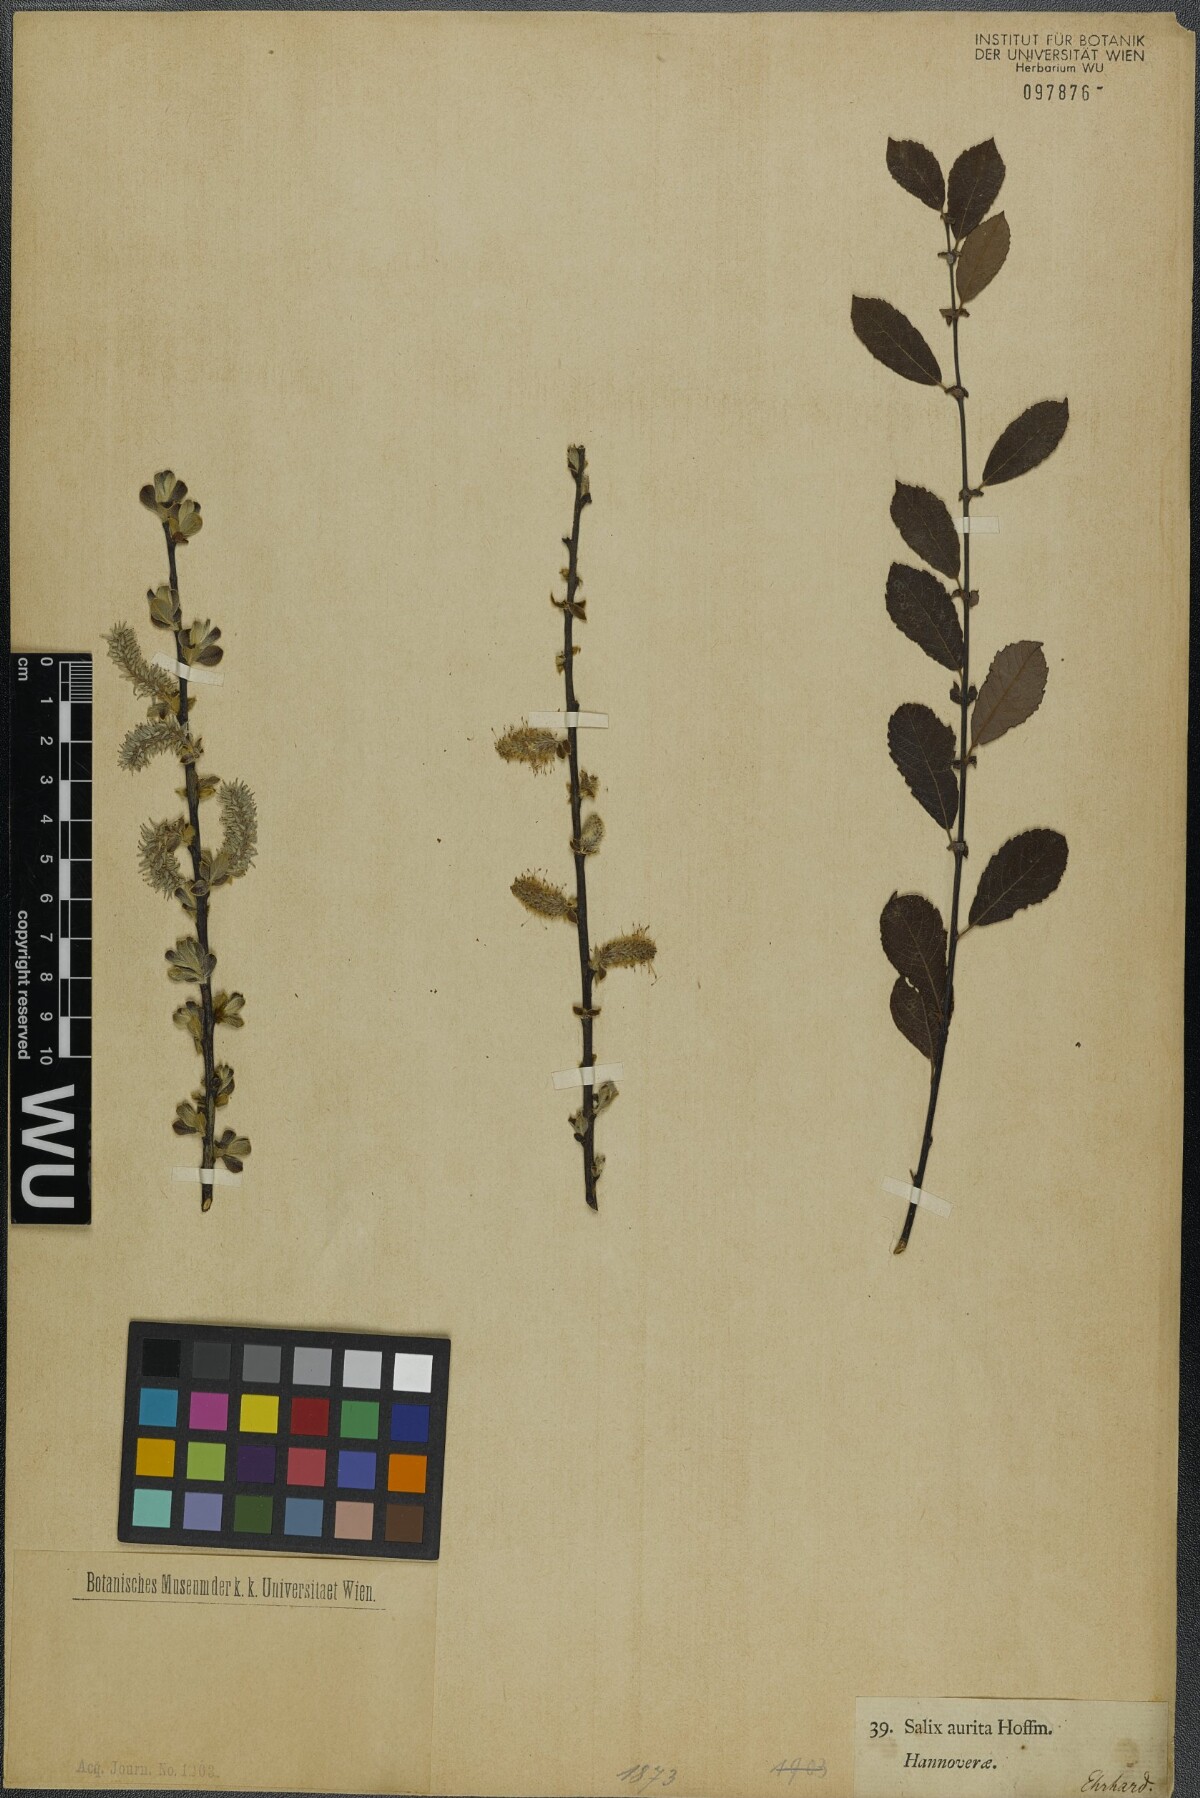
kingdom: Plantae
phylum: Tracheophyta
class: Magnoliopsida
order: Malpighiales
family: Salicaceae
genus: Salix
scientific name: Salix aurita
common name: Eared willow
